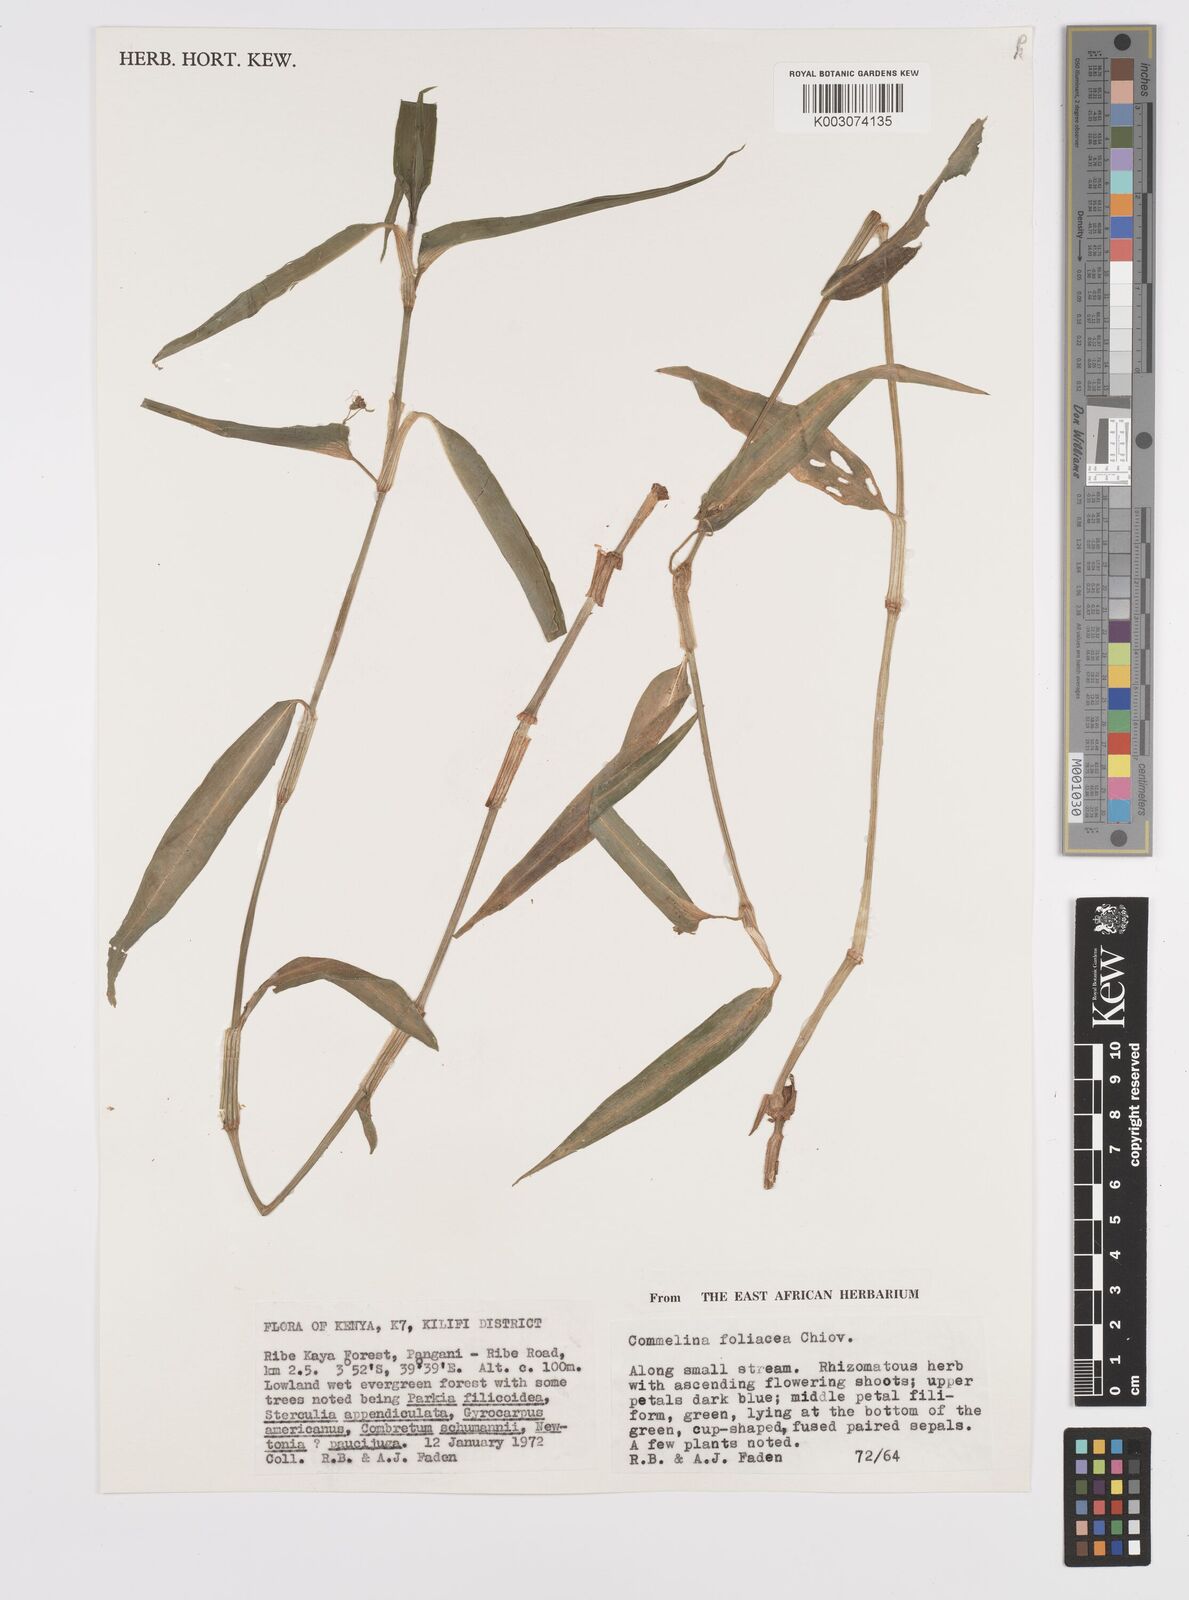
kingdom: Plantae
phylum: Tracheophyta
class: Liliopsida
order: Commelinales
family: Commelinaceae
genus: Commelina
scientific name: Commelina foliacea
